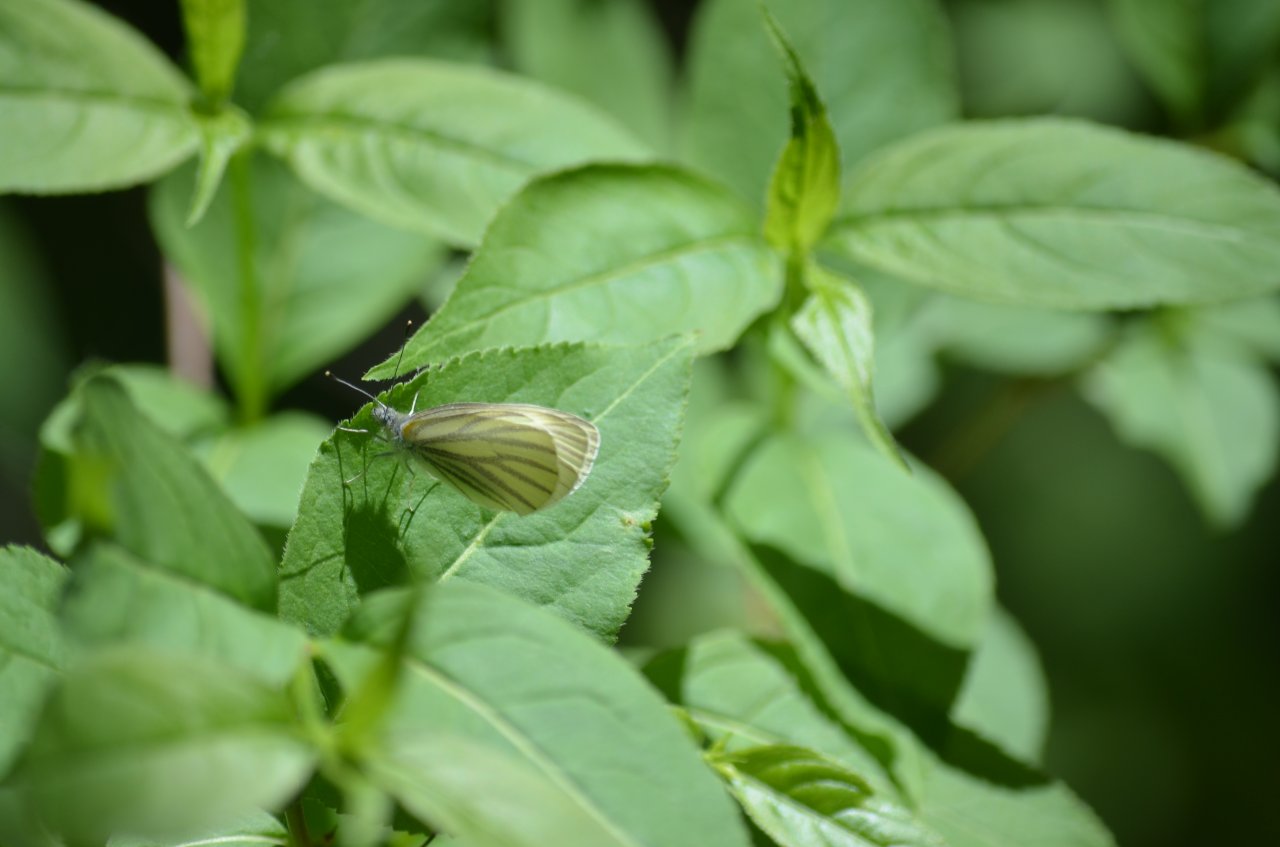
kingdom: Animalia
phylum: Arthropoda
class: Insecta
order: Lepidoptera
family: Pieridae
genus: Pieris
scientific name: Pieris oleracea
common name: Mustard White
